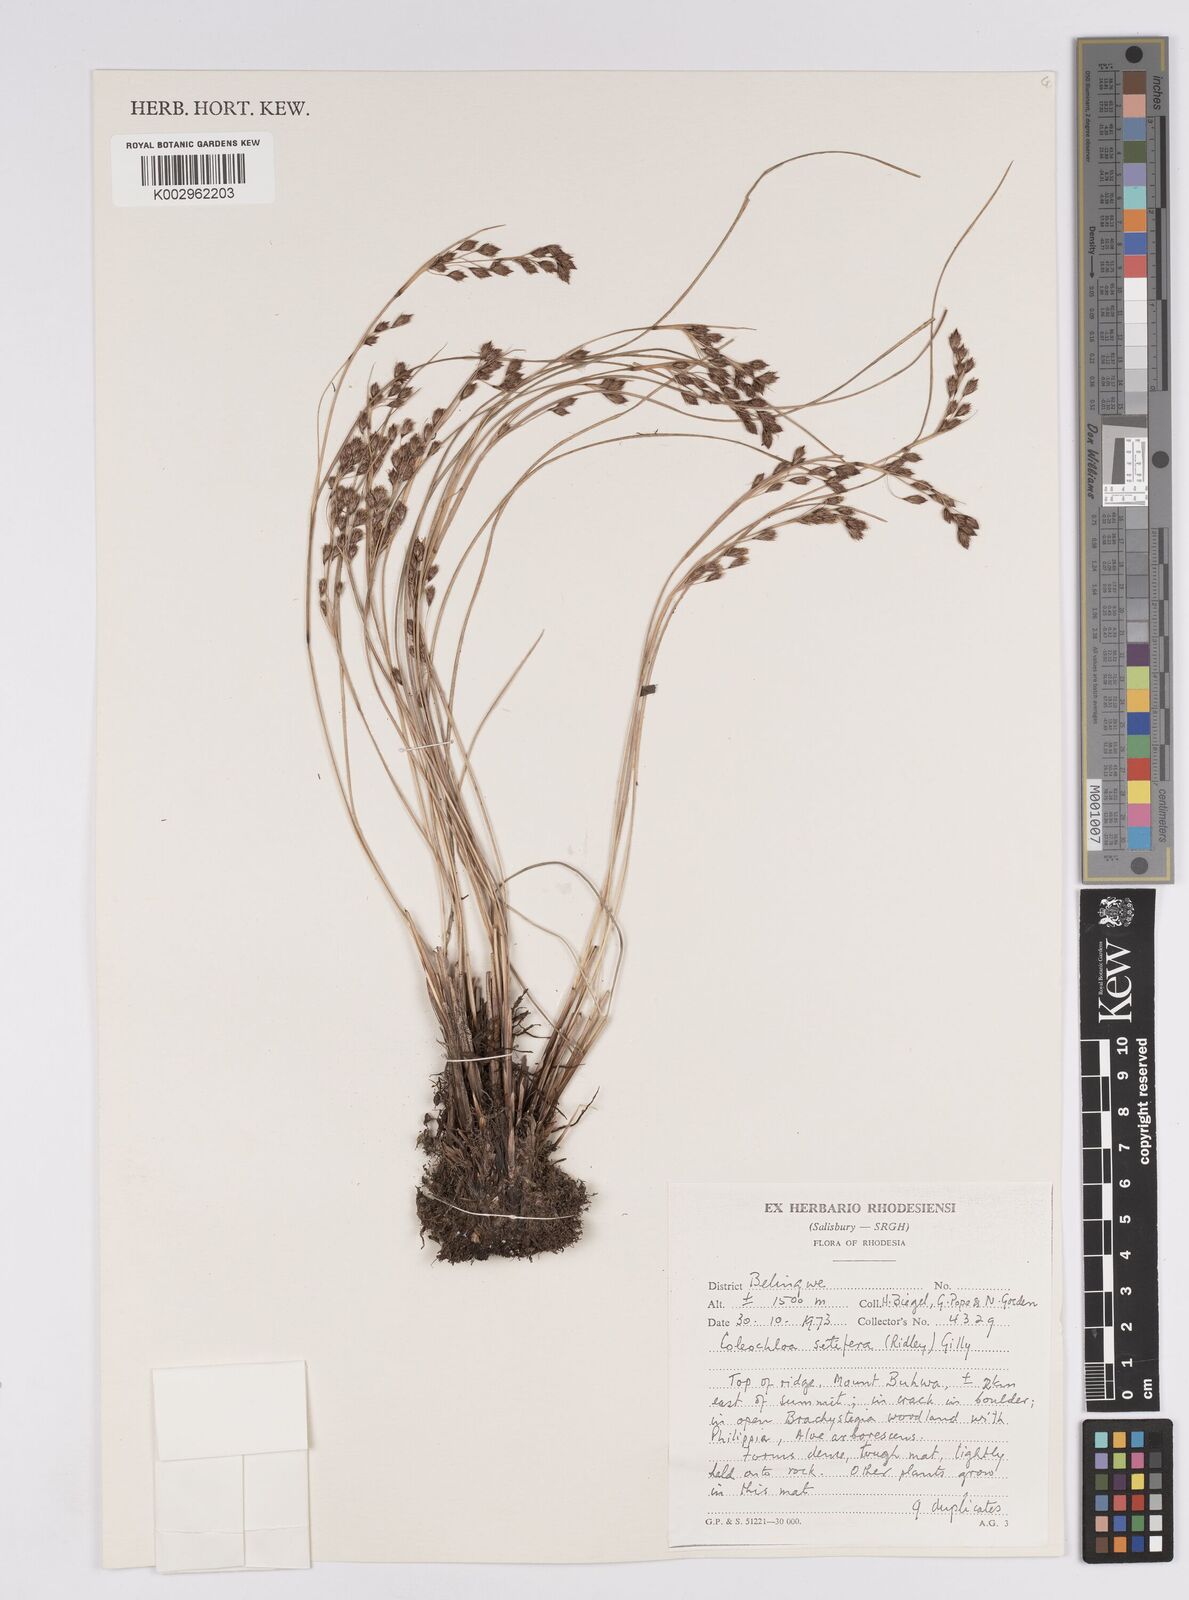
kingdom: Plantae
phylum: Tracheophyta
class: Liliopsida
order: Poales
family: Cyperaceae
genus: Coleochloa
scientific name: Coleochloa setifera
